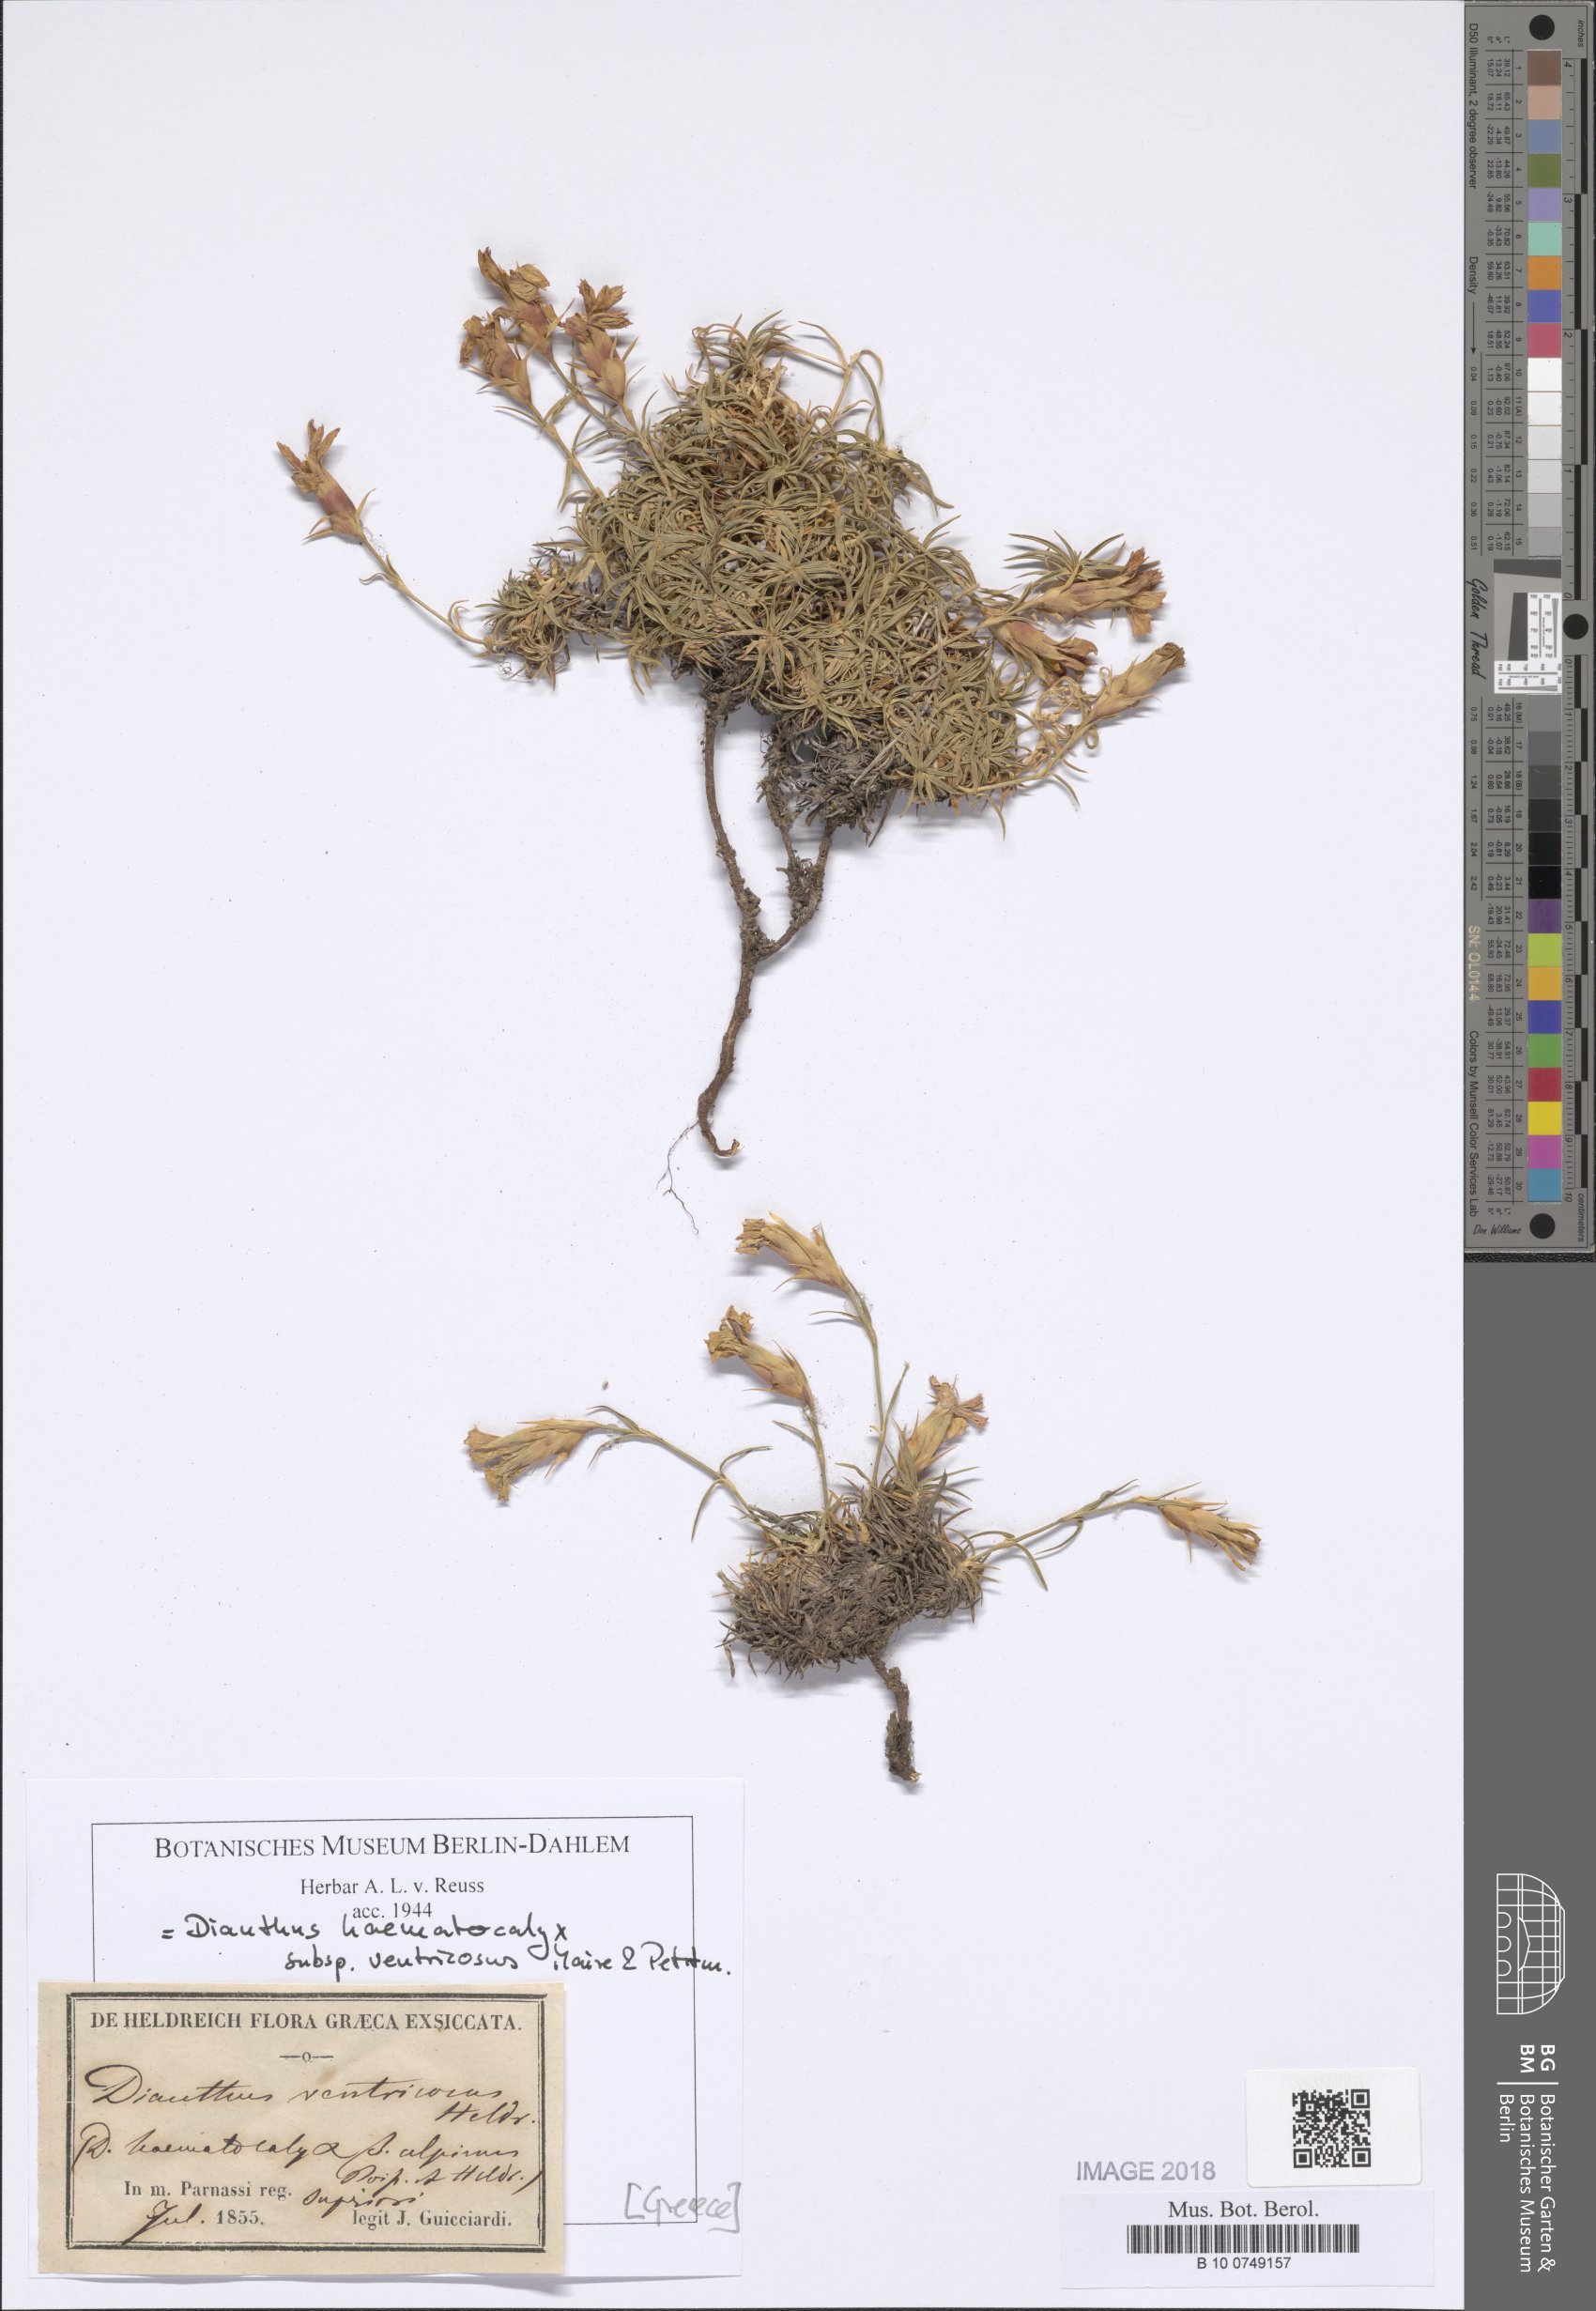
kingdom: Plantae
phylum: Tracheophyta
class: Magnoliopsida
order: Caryophyllales
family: Caryophyllaceae
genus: Dianthus
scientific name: Dianthus haematocalyx
